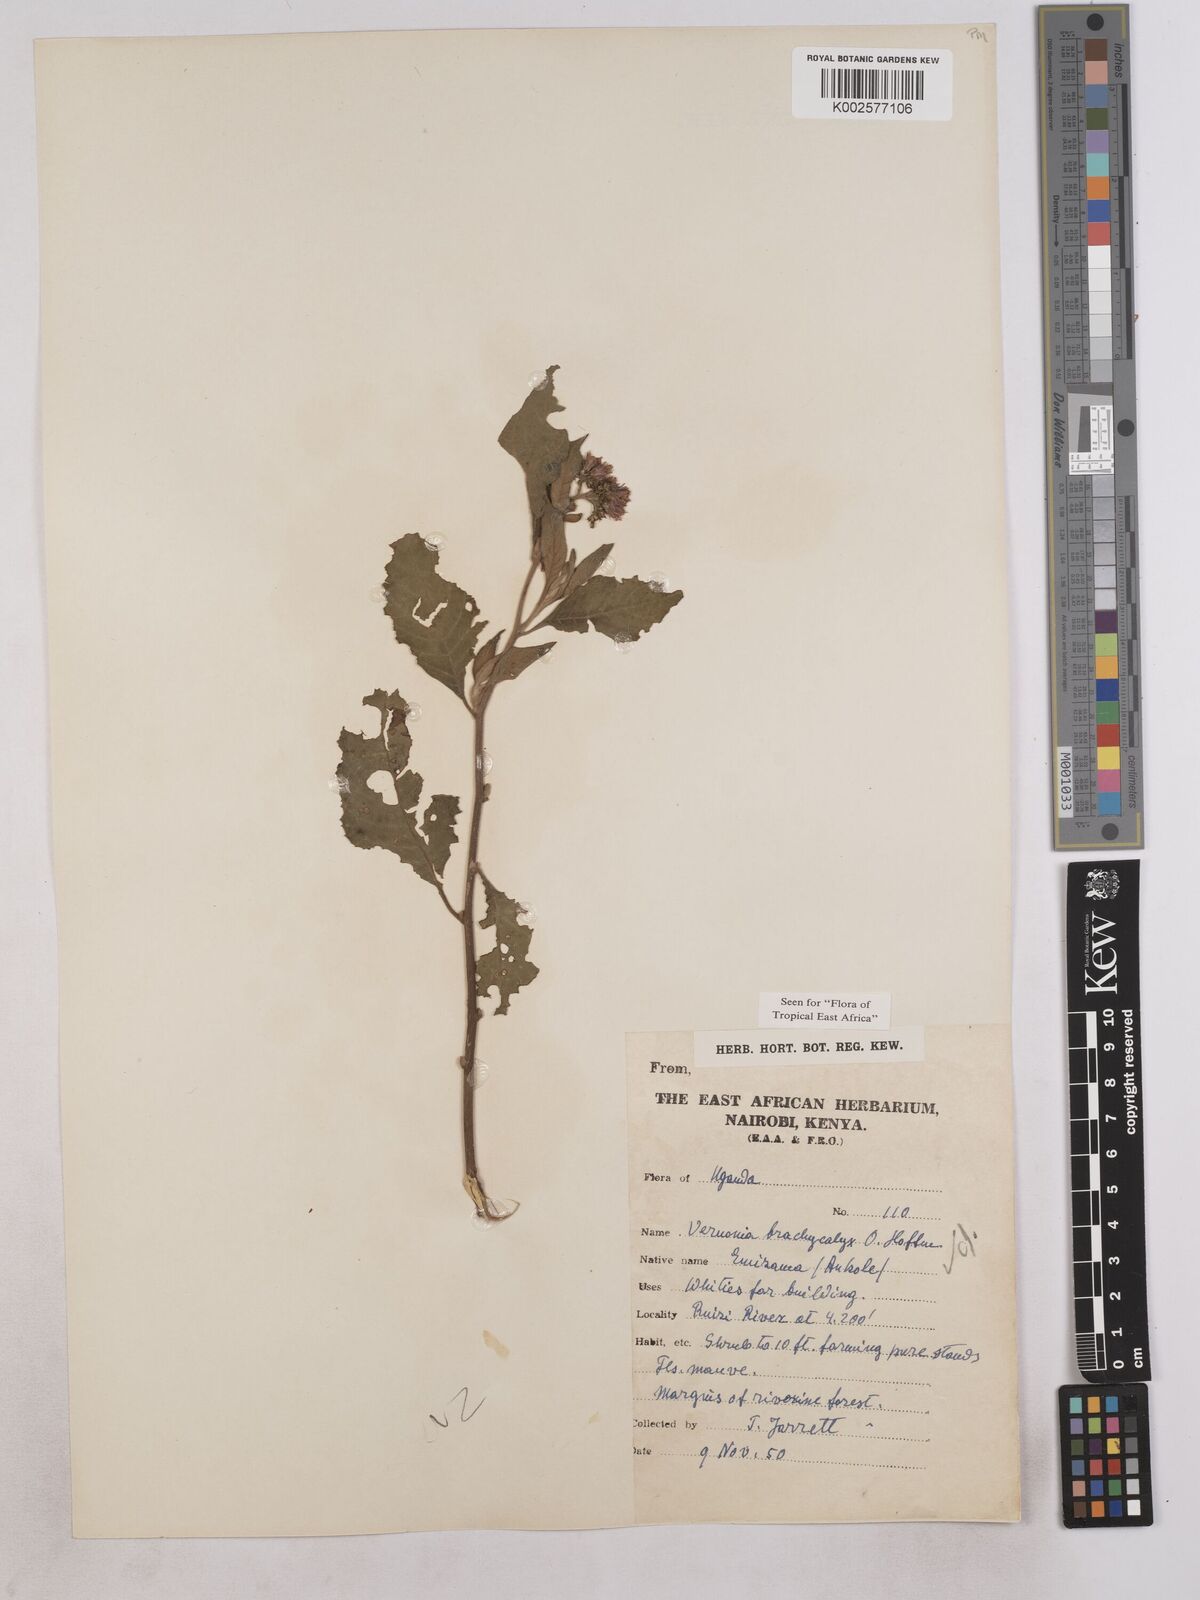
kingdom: Plantae
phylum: Tracheophyta
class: Magnoliopsida
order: Asterales
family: Asteraceae
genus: Hoffmannanthus
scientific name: Hoffmannanthus abbotianus
